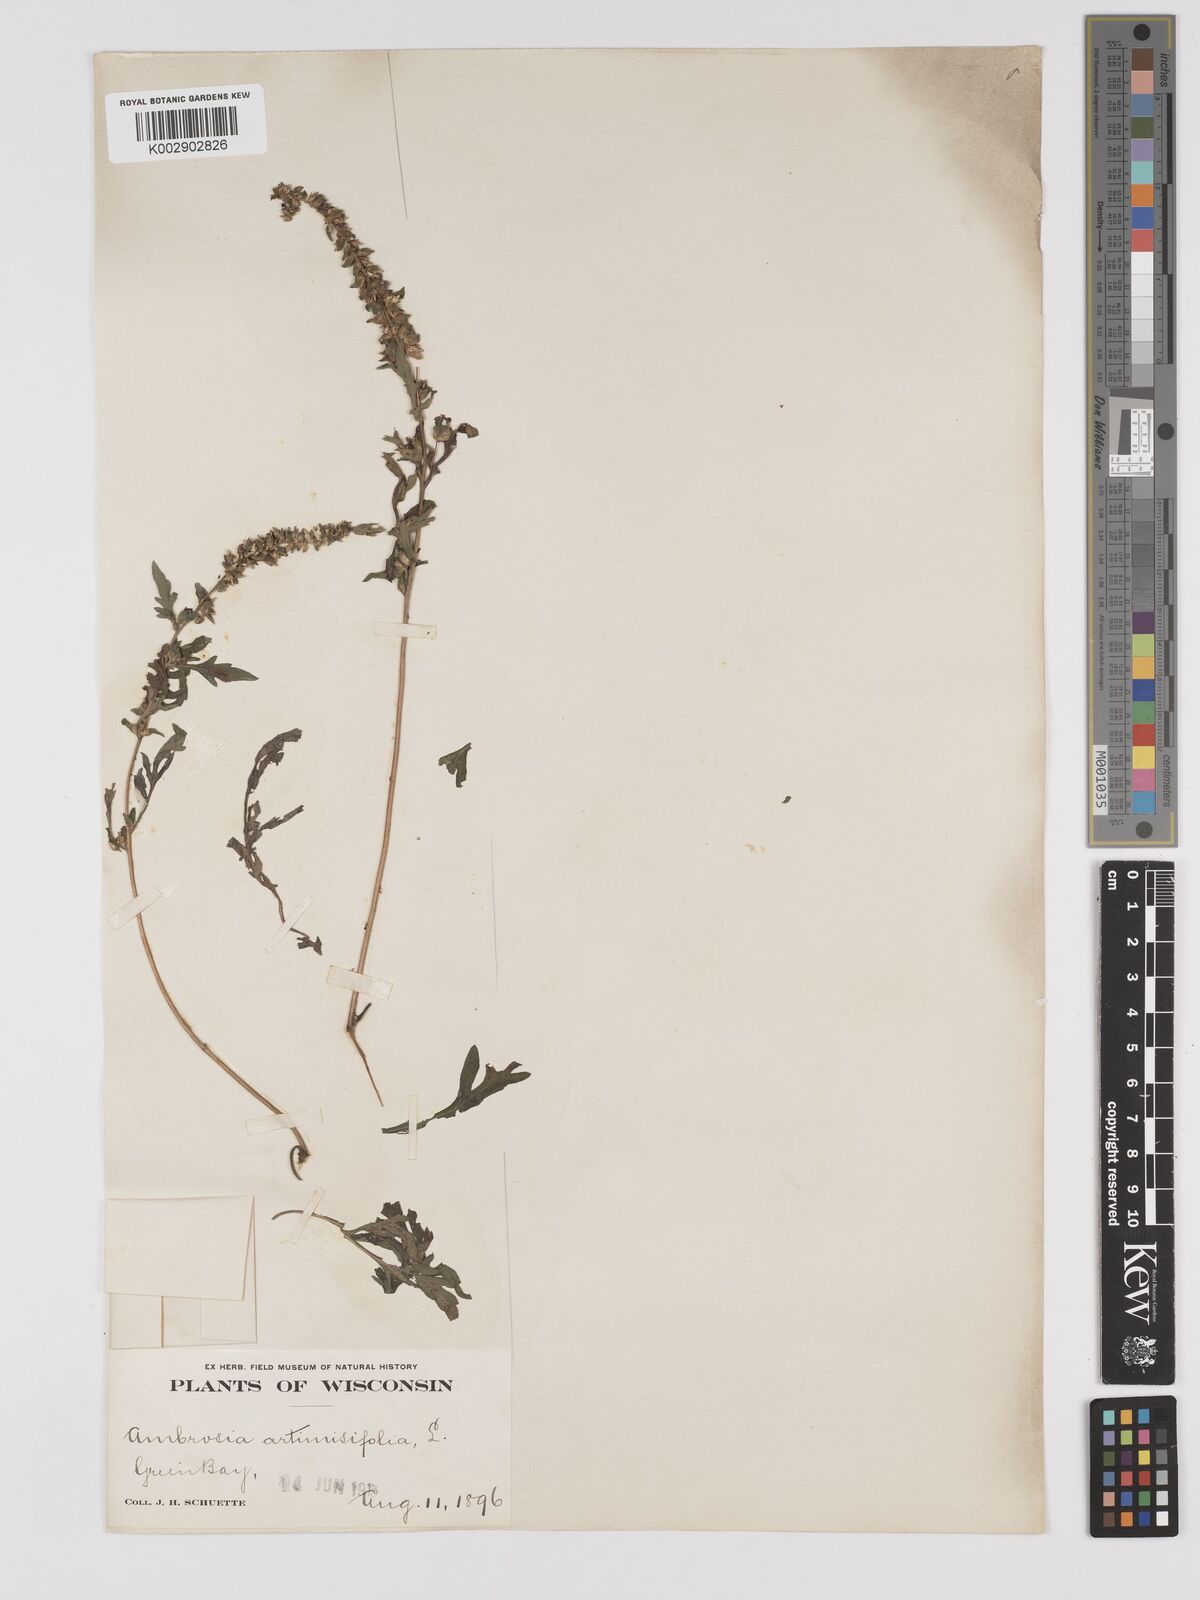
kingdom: Plantae
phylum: Tracheophyta
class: Magnoliopsida
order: Asterales
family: Asteraceae
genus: Ambrosia
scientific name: Ambrosia artemisiifolia
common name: Annual ragweed
